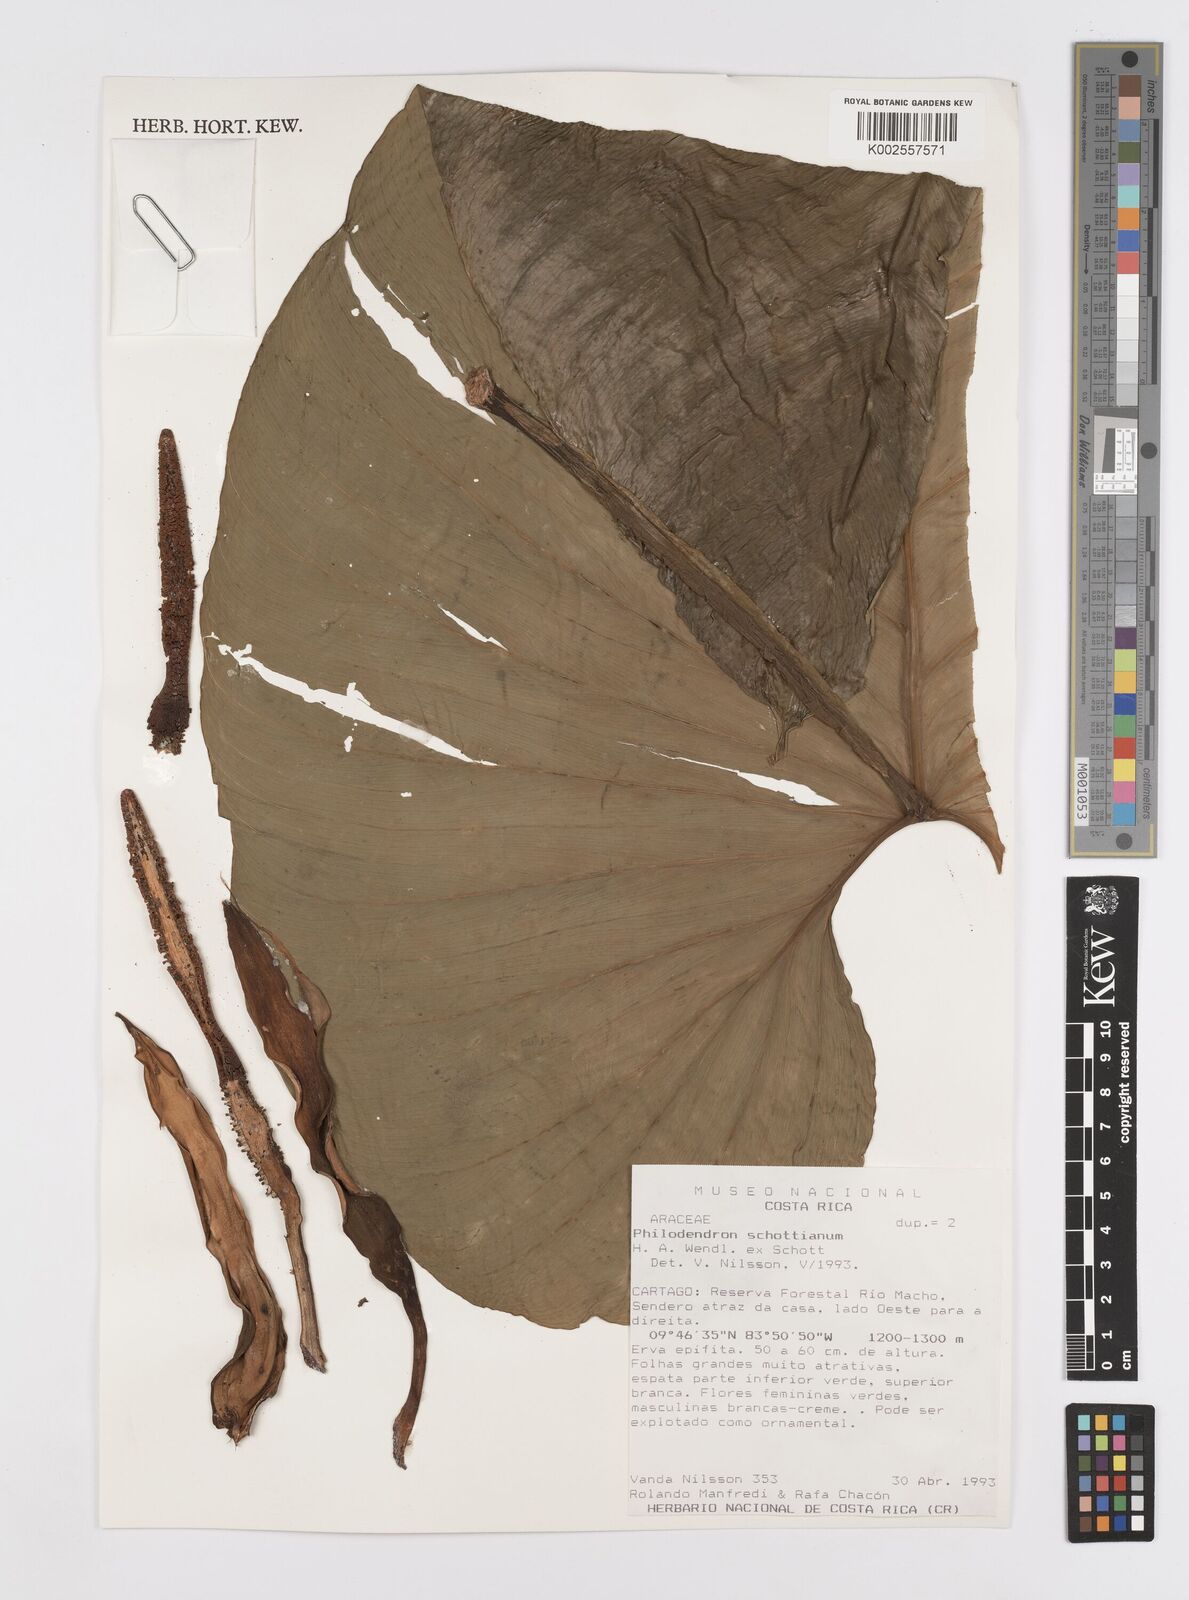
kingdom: Plantae
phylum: Tracheophyta
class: Liliopsida
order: Alismatales
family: Araceae
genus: Philodendron
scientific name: Philodendron schottianum
